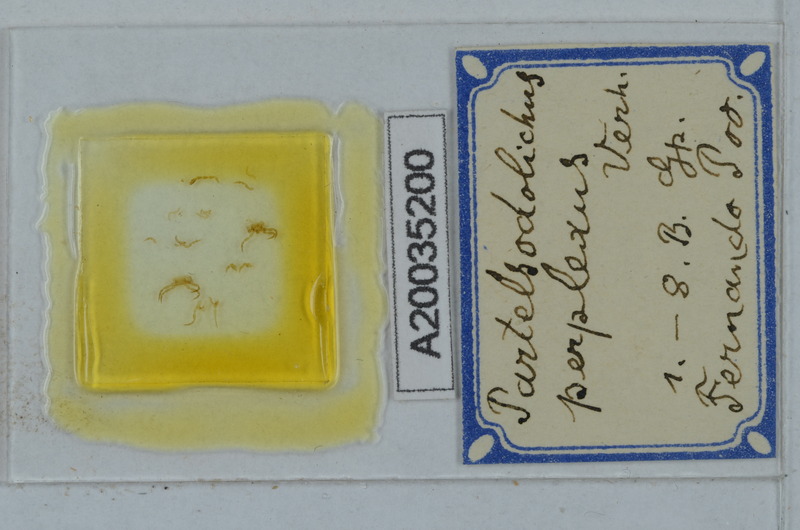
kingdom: Animalia
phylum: Arthropoda
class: Diplopoda
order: Polydesmida
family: Paradoxosomatidae
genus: Scolodesmus
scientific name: Scolodesmus perplexus
